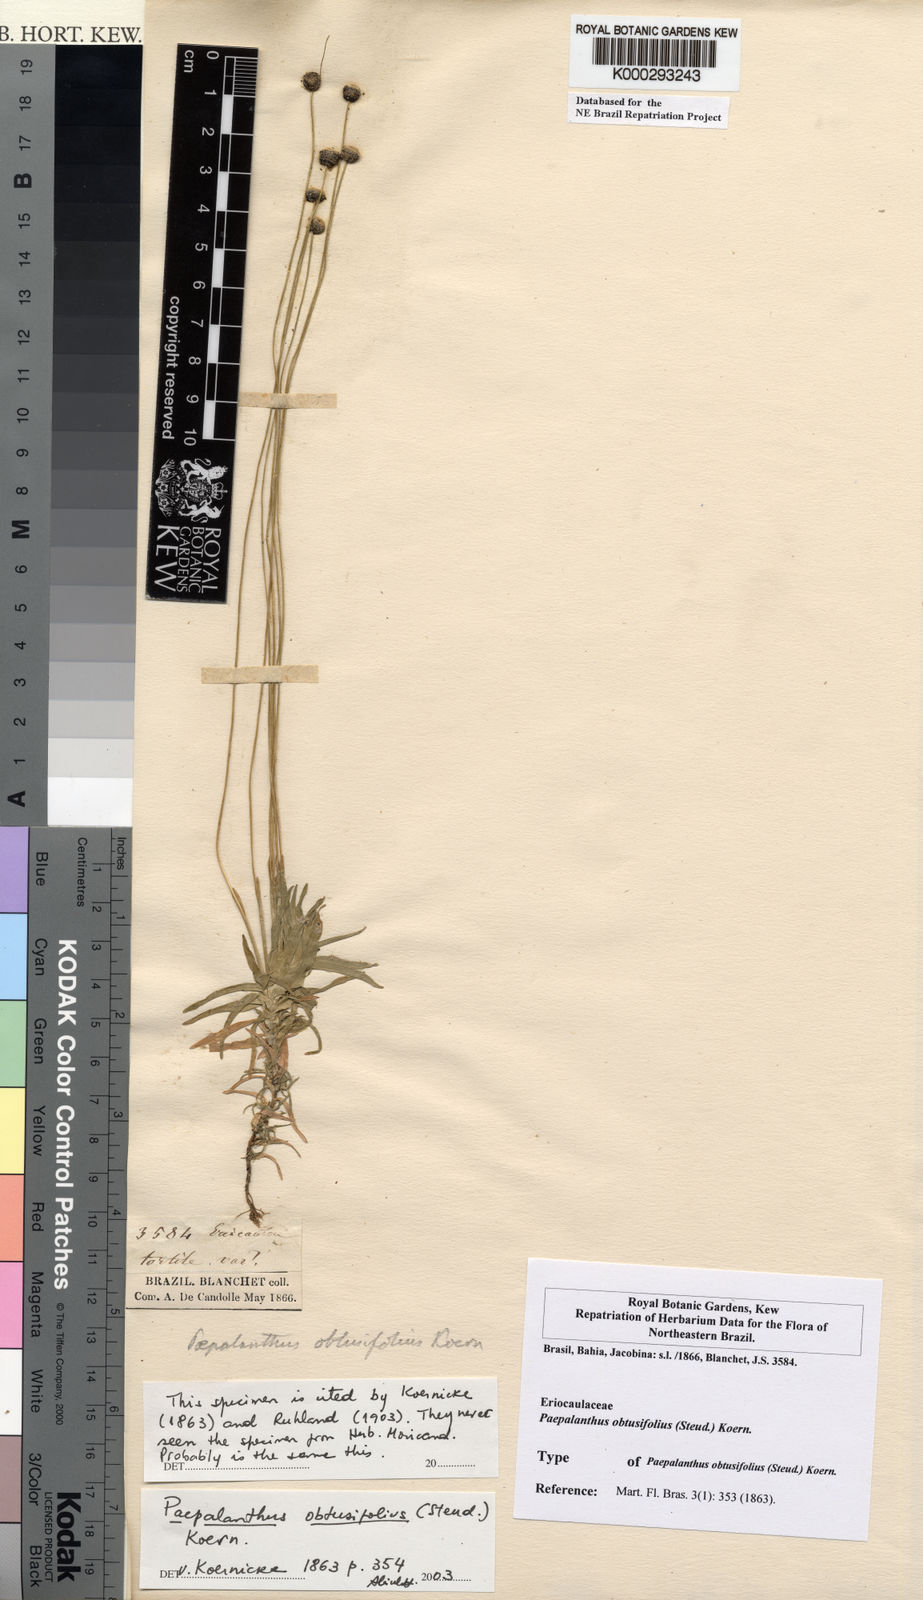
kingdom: Plantae
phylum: Tracheophyta
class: Liliopsida
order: Poales
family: Eriocaulaceae
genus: Paepalanthus
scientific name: Paepalanthus
